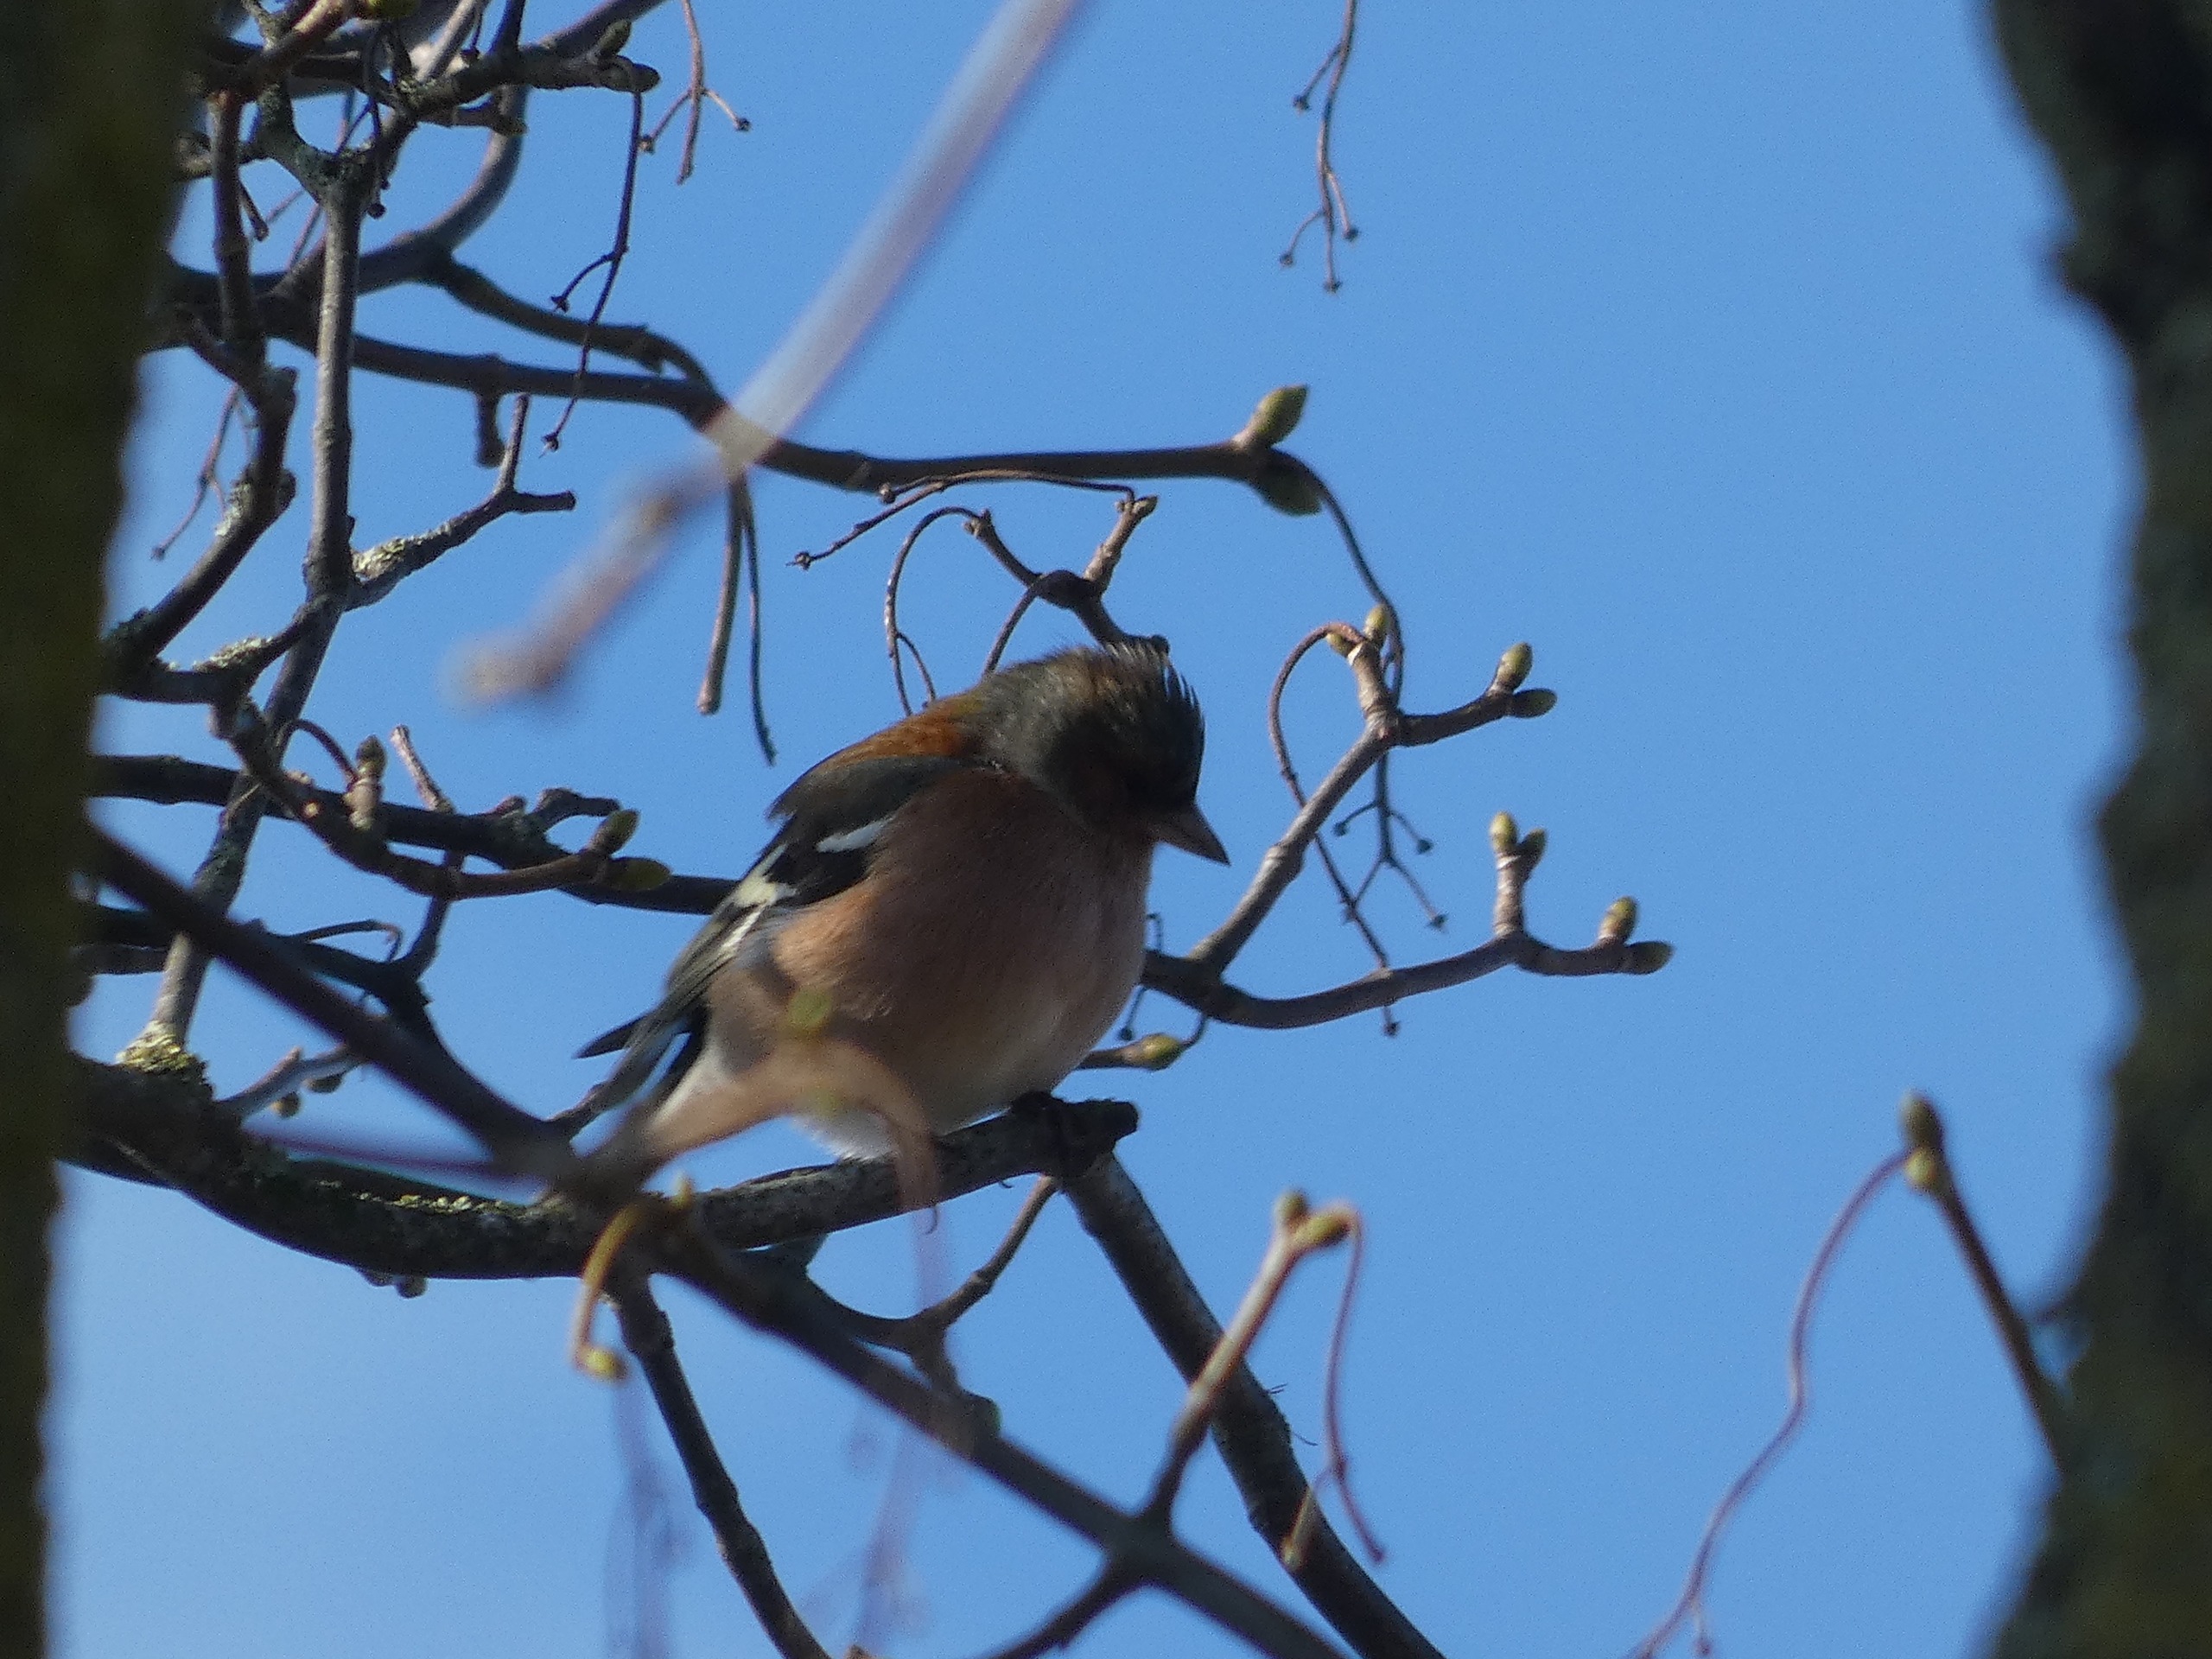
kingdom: Animalia
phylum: Chordata
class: Aves
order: Passeriformes
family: Fringillidae
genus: Fringilla
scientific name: Fringilla coelebs
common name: Bogfinke
